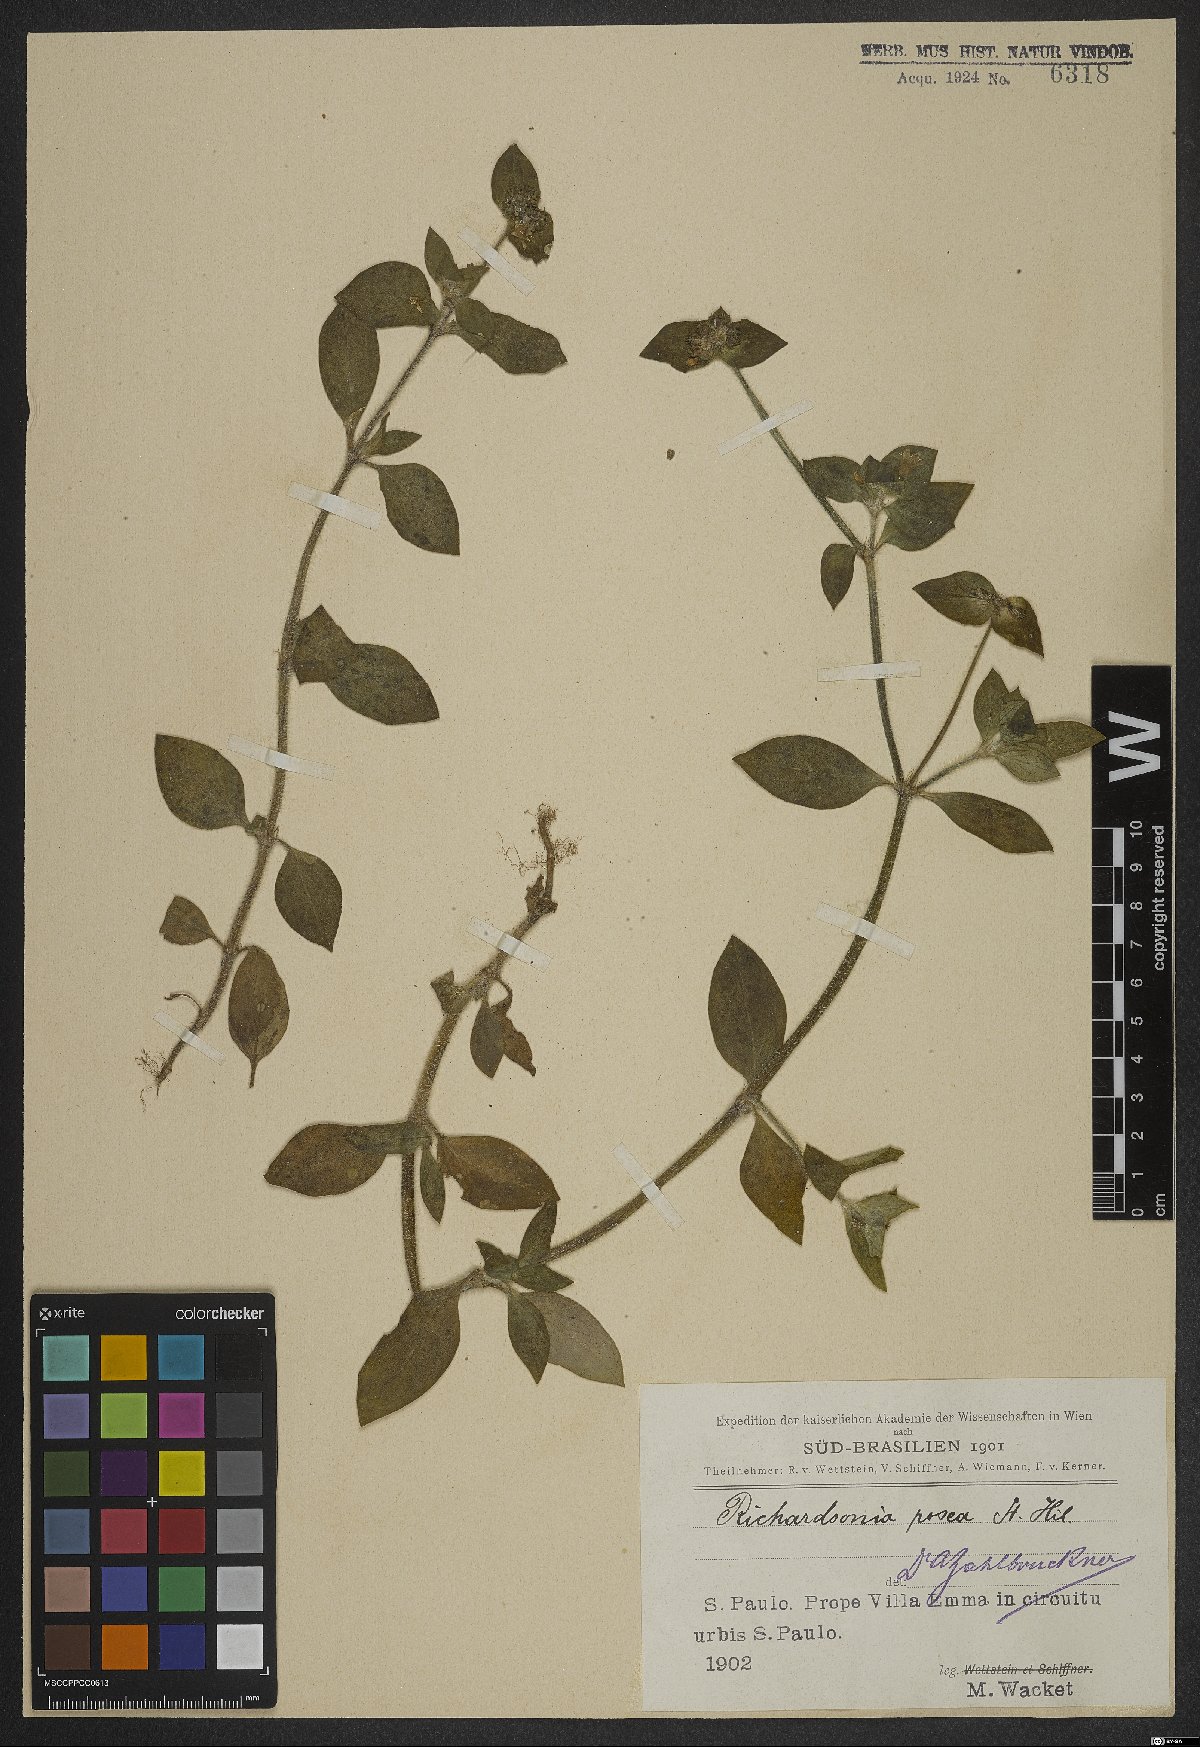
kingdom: Plantae
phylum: Tracheophyta
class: Magnoliopsida
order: Gentianales
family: Rubiaceae
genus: Richardia
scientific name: Richardia brasiliensis
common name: Tropical mexican clover
